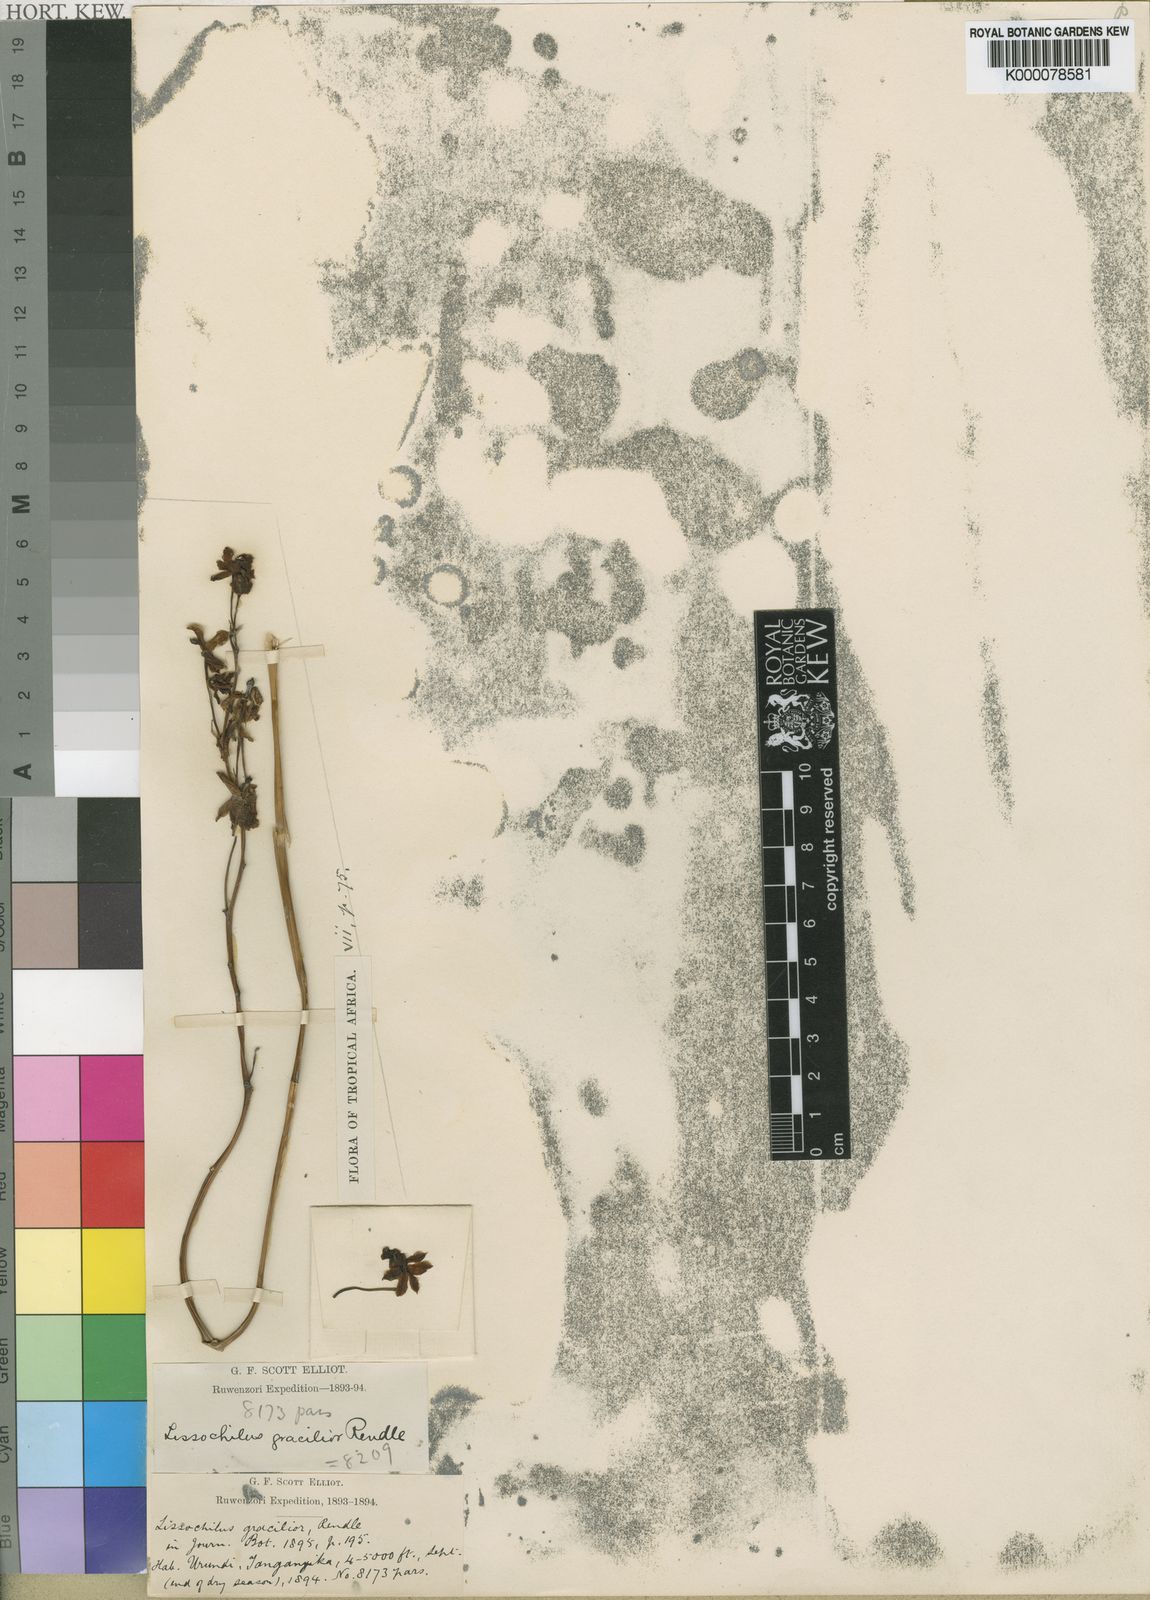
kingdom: Plantae
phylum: Tracheophyta
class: Liliopsida
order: Asparagales
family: Orchidaceae
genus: Eulophia
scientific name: Eulophia
